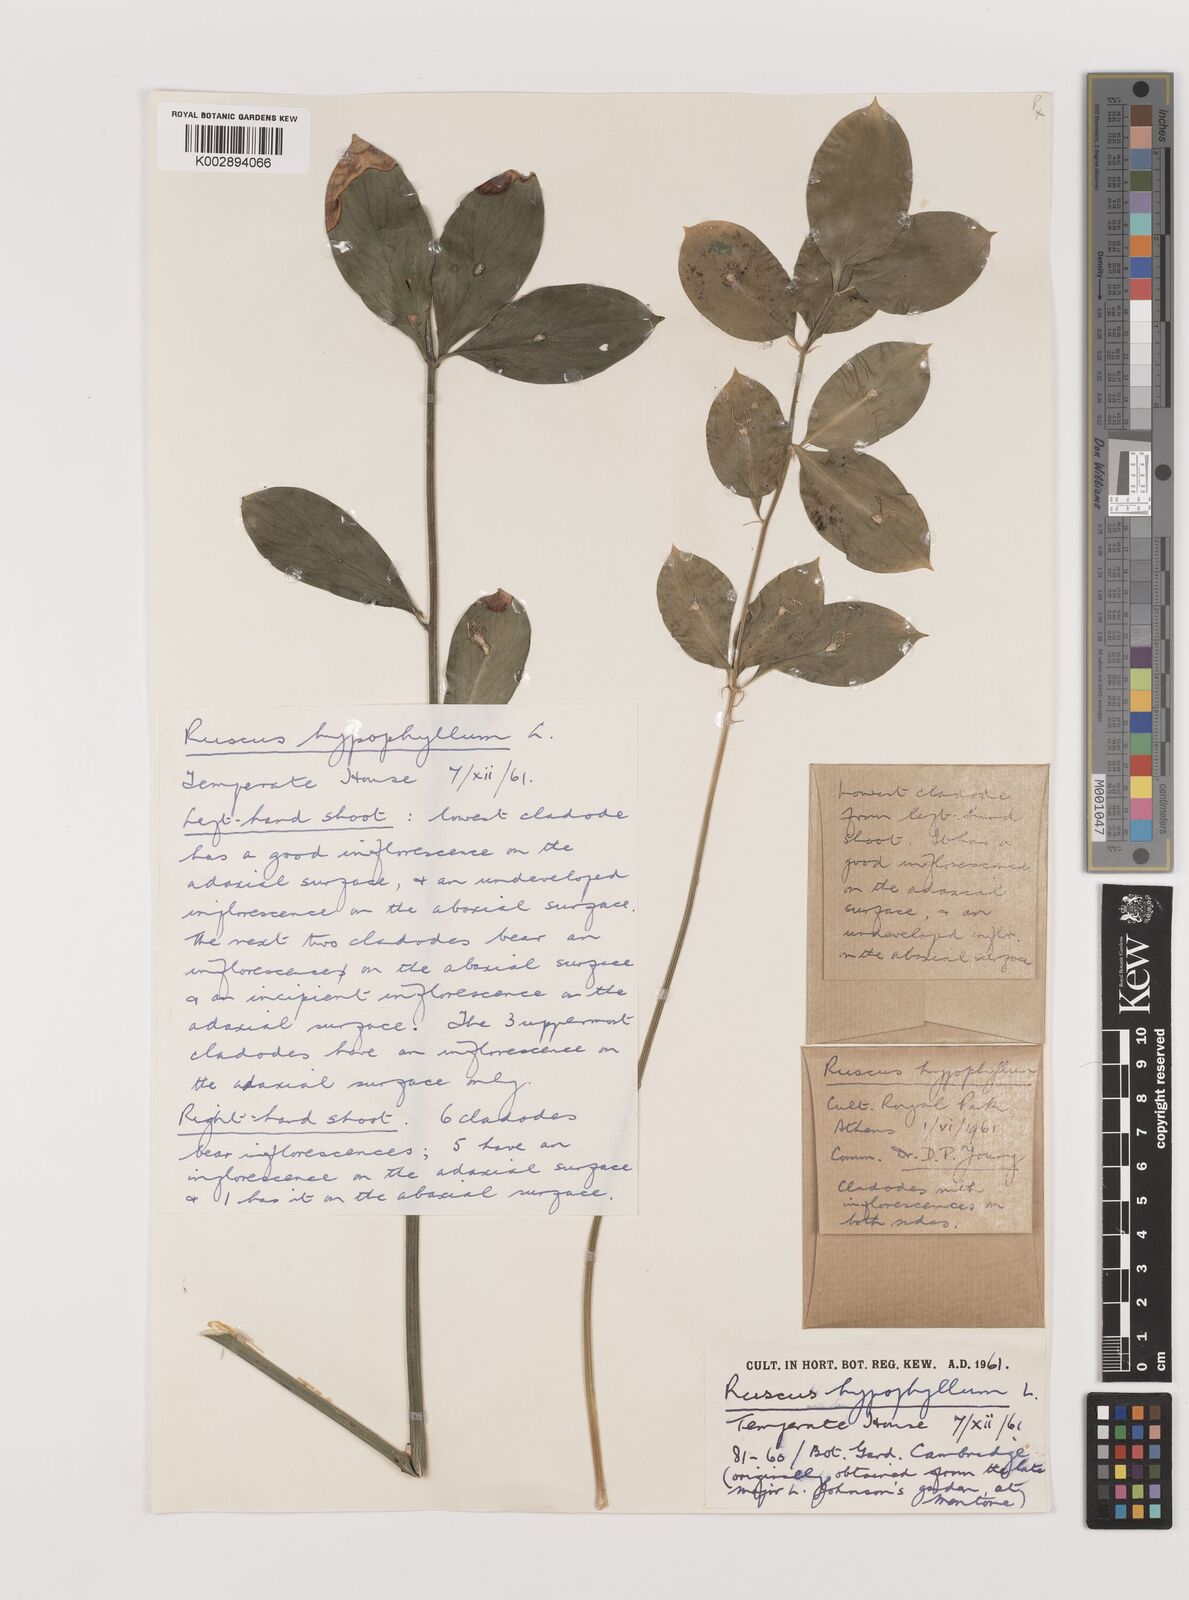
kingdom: Plantae
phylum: Tracheophyta
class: Liliopsida
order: Asparagales
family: Asparagaceae
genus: Ruscus
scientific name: Ruscus hypophyllum
